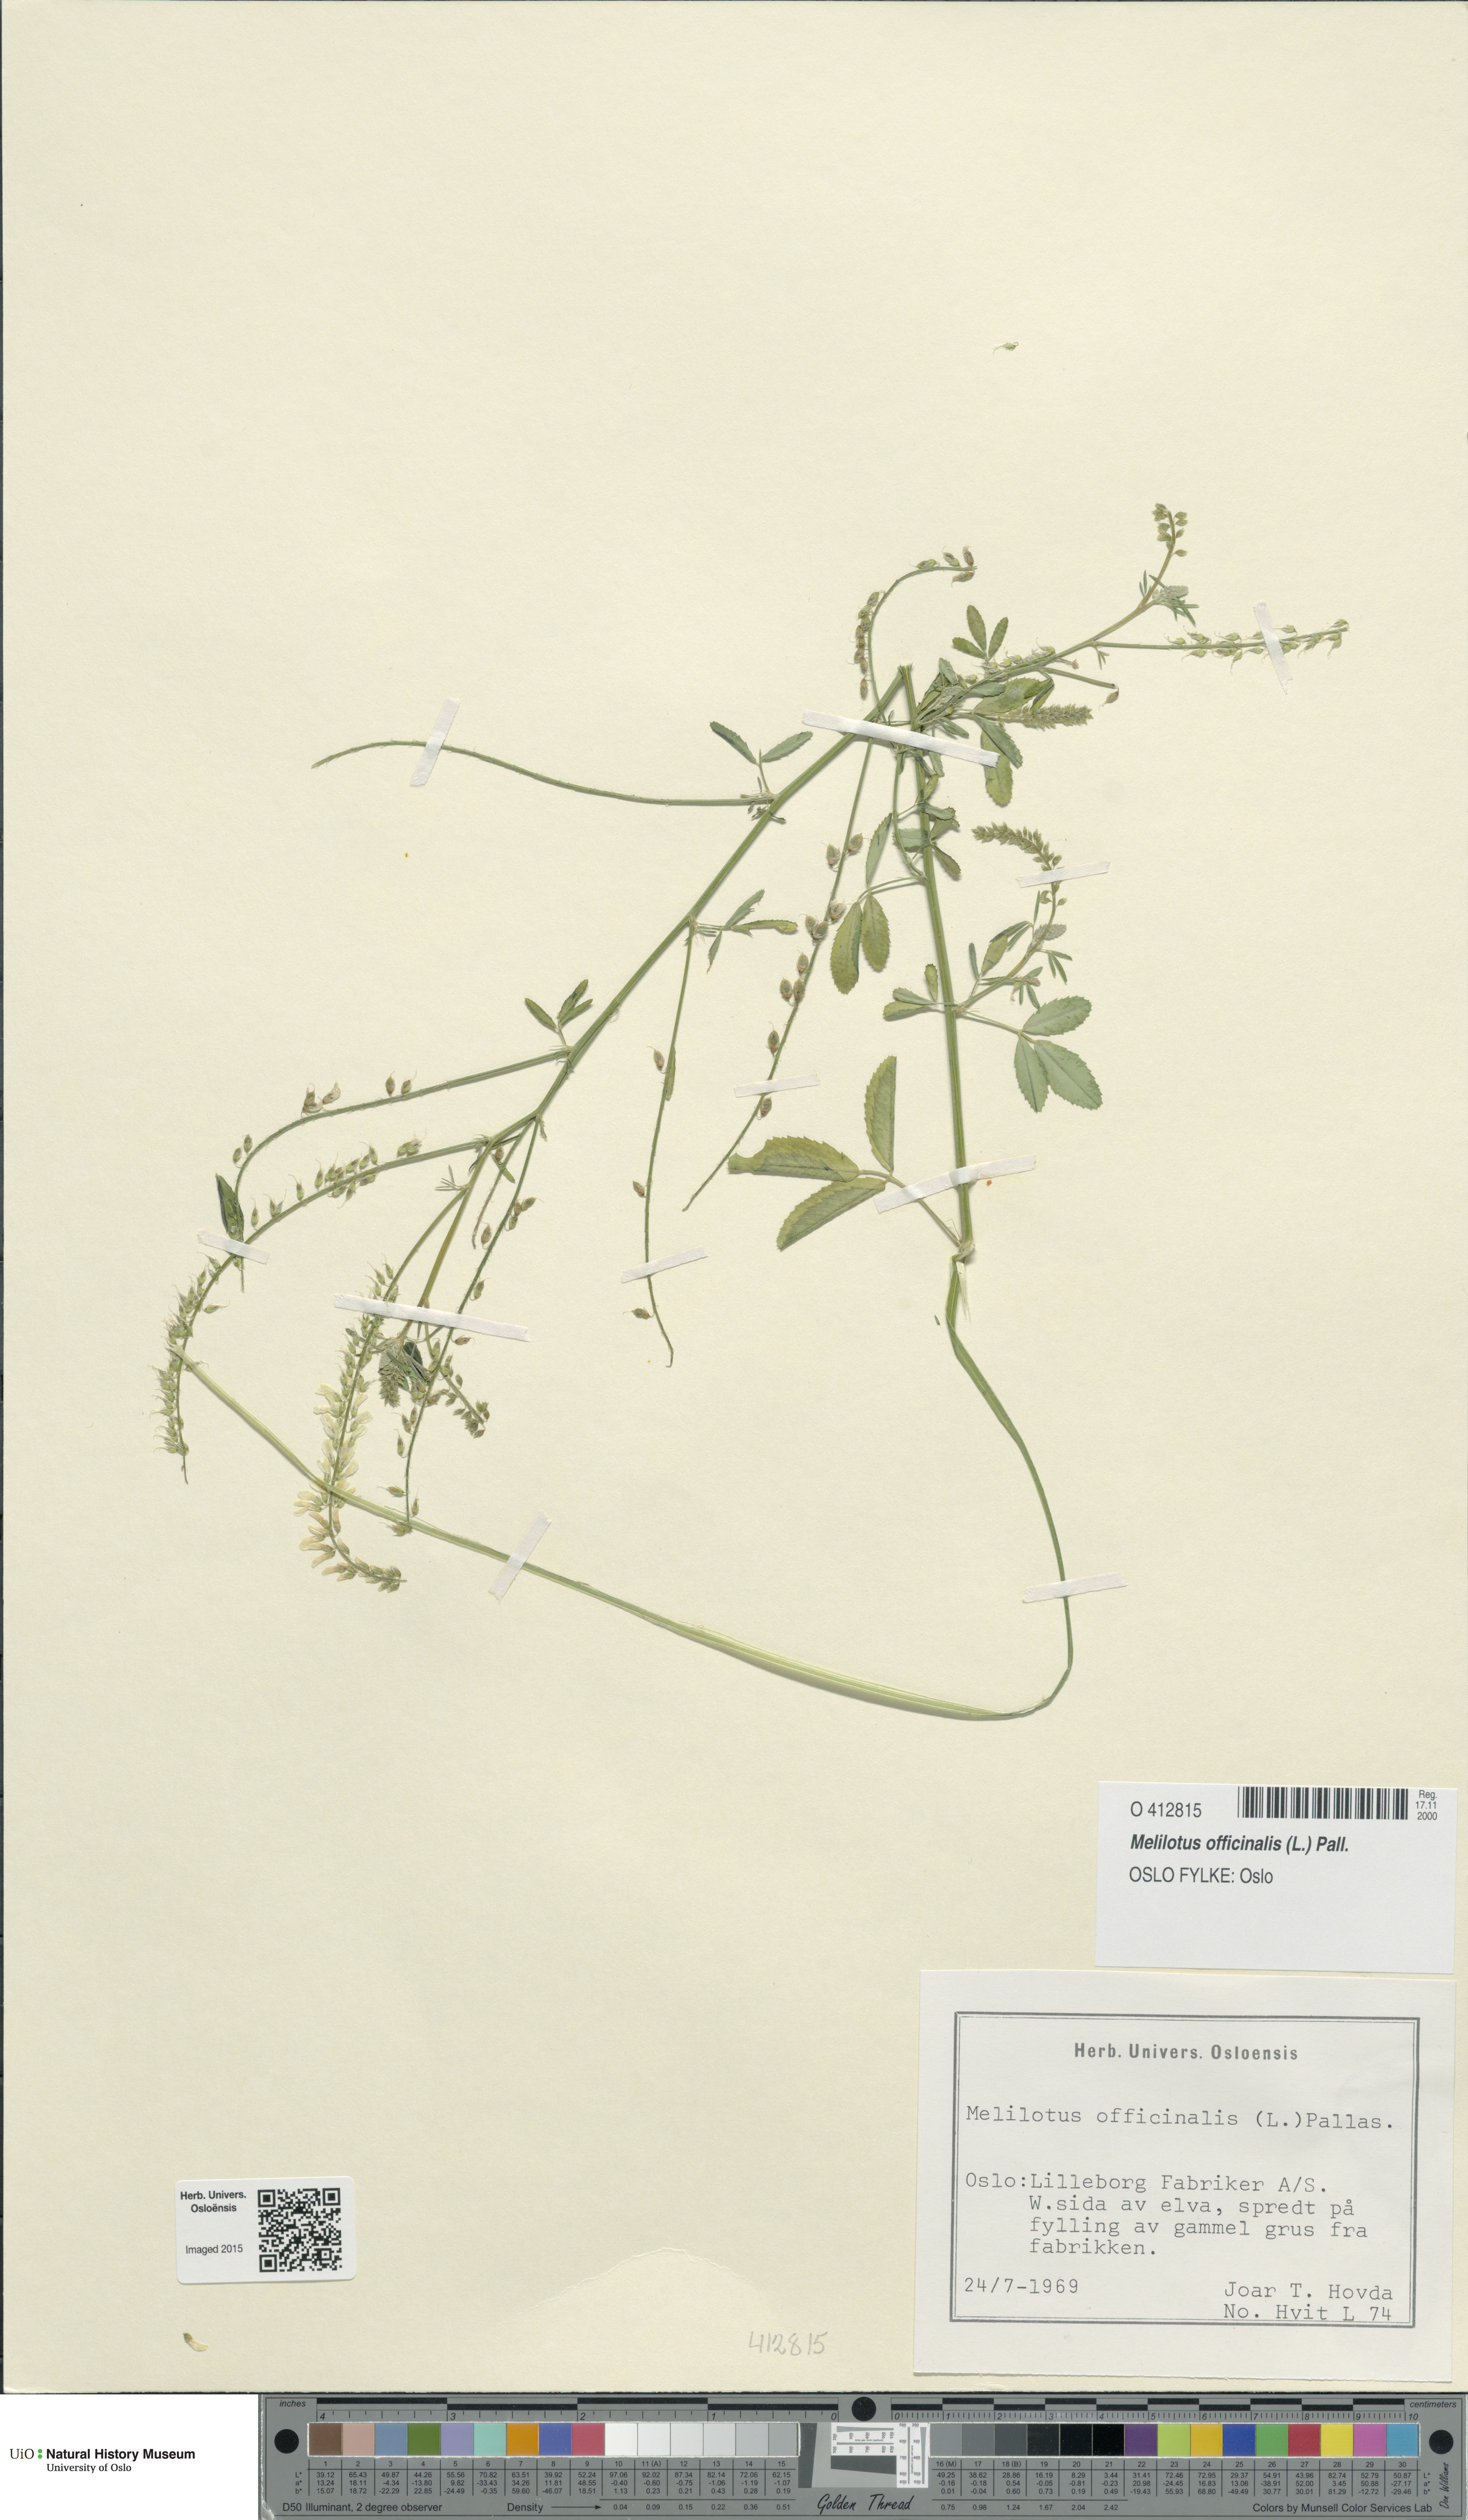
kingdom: Plantae
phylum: Tracheophyta
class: Magnoliopsida
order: Fabales
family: Fabaceae
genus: Melilotus
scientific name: Melilotus officinalis
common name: Sweetclover
